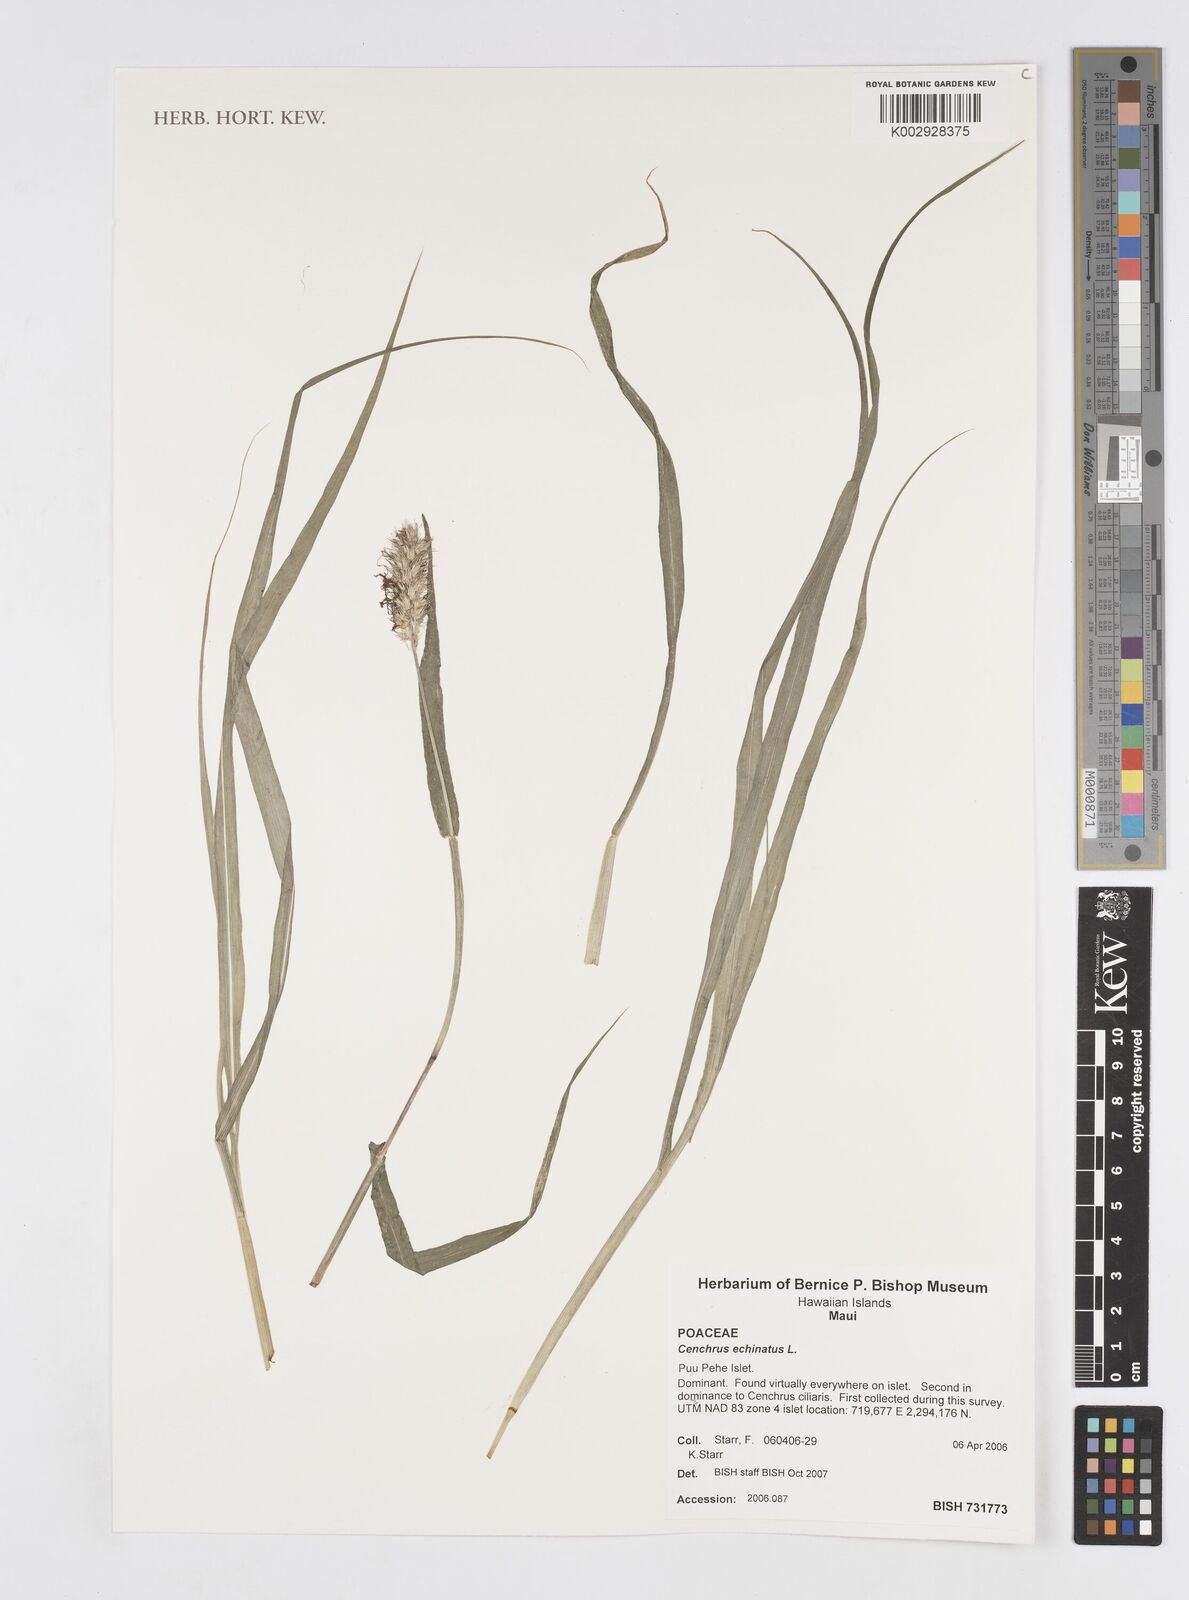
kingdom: Plantae
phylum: Tracheophyta
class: Liliopsida
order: Poales
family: Poaceae
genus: Cenchrus
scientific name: Cenchrus echinatus
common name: Southern sandbur
